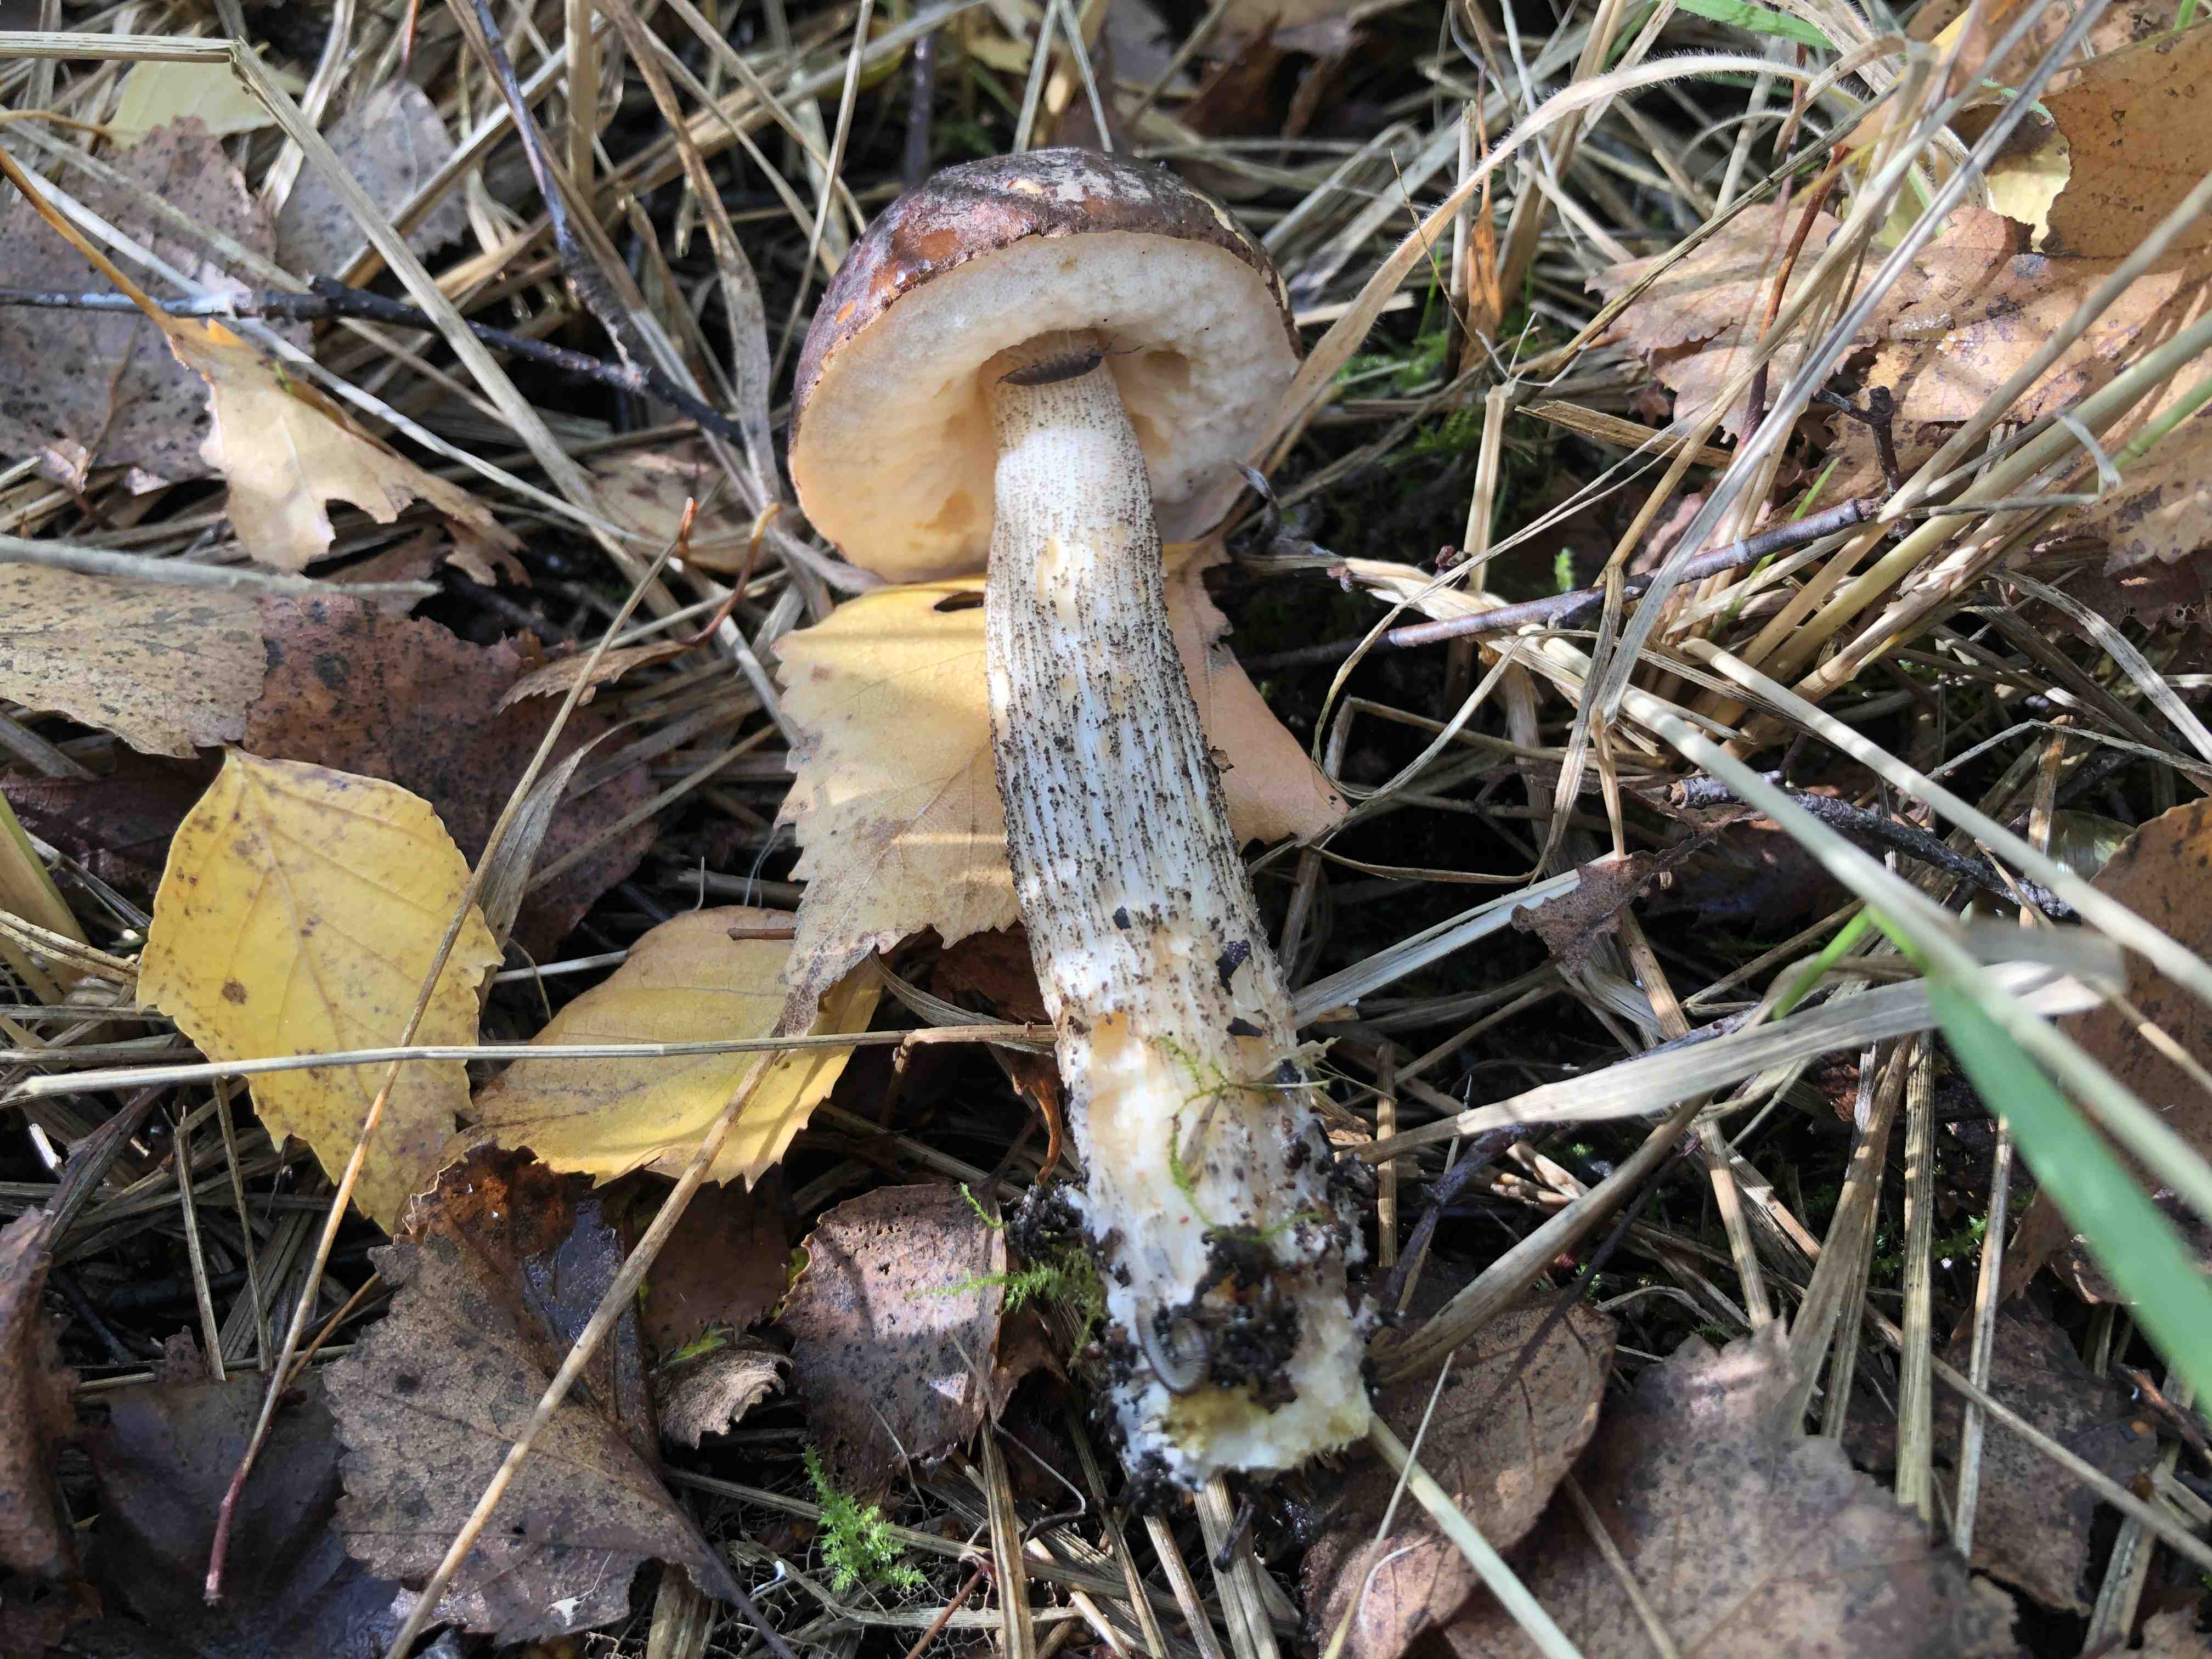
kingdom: Fungi
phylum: Basidiomycota
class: Agaricomycetes
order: Boletales
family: Boletaceae
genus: Leccinum
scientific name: Leccinum
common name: skælrørhat
